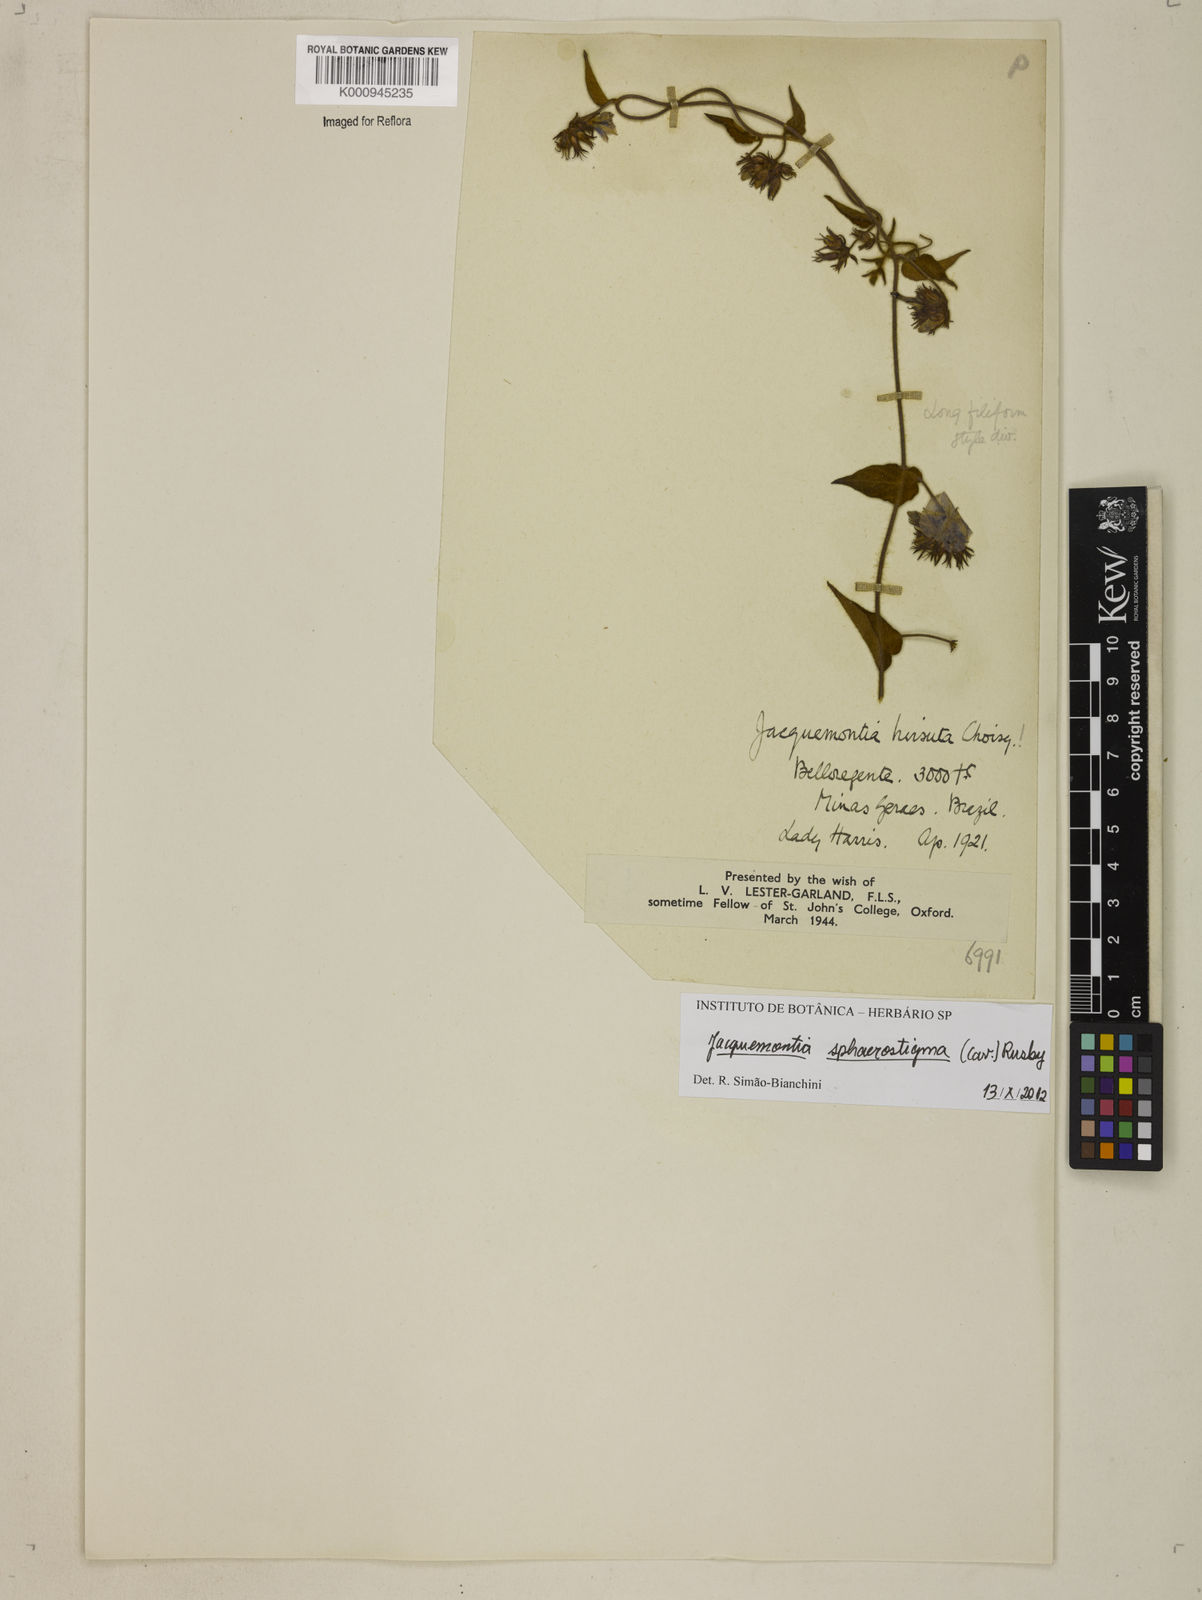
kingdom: Plantae
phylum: Tracheophyta
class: Magnoliopsida
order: Solanales
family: Convolvulaceae
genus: Jacquemontia
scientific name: Jacquemontia sphaerostigma
